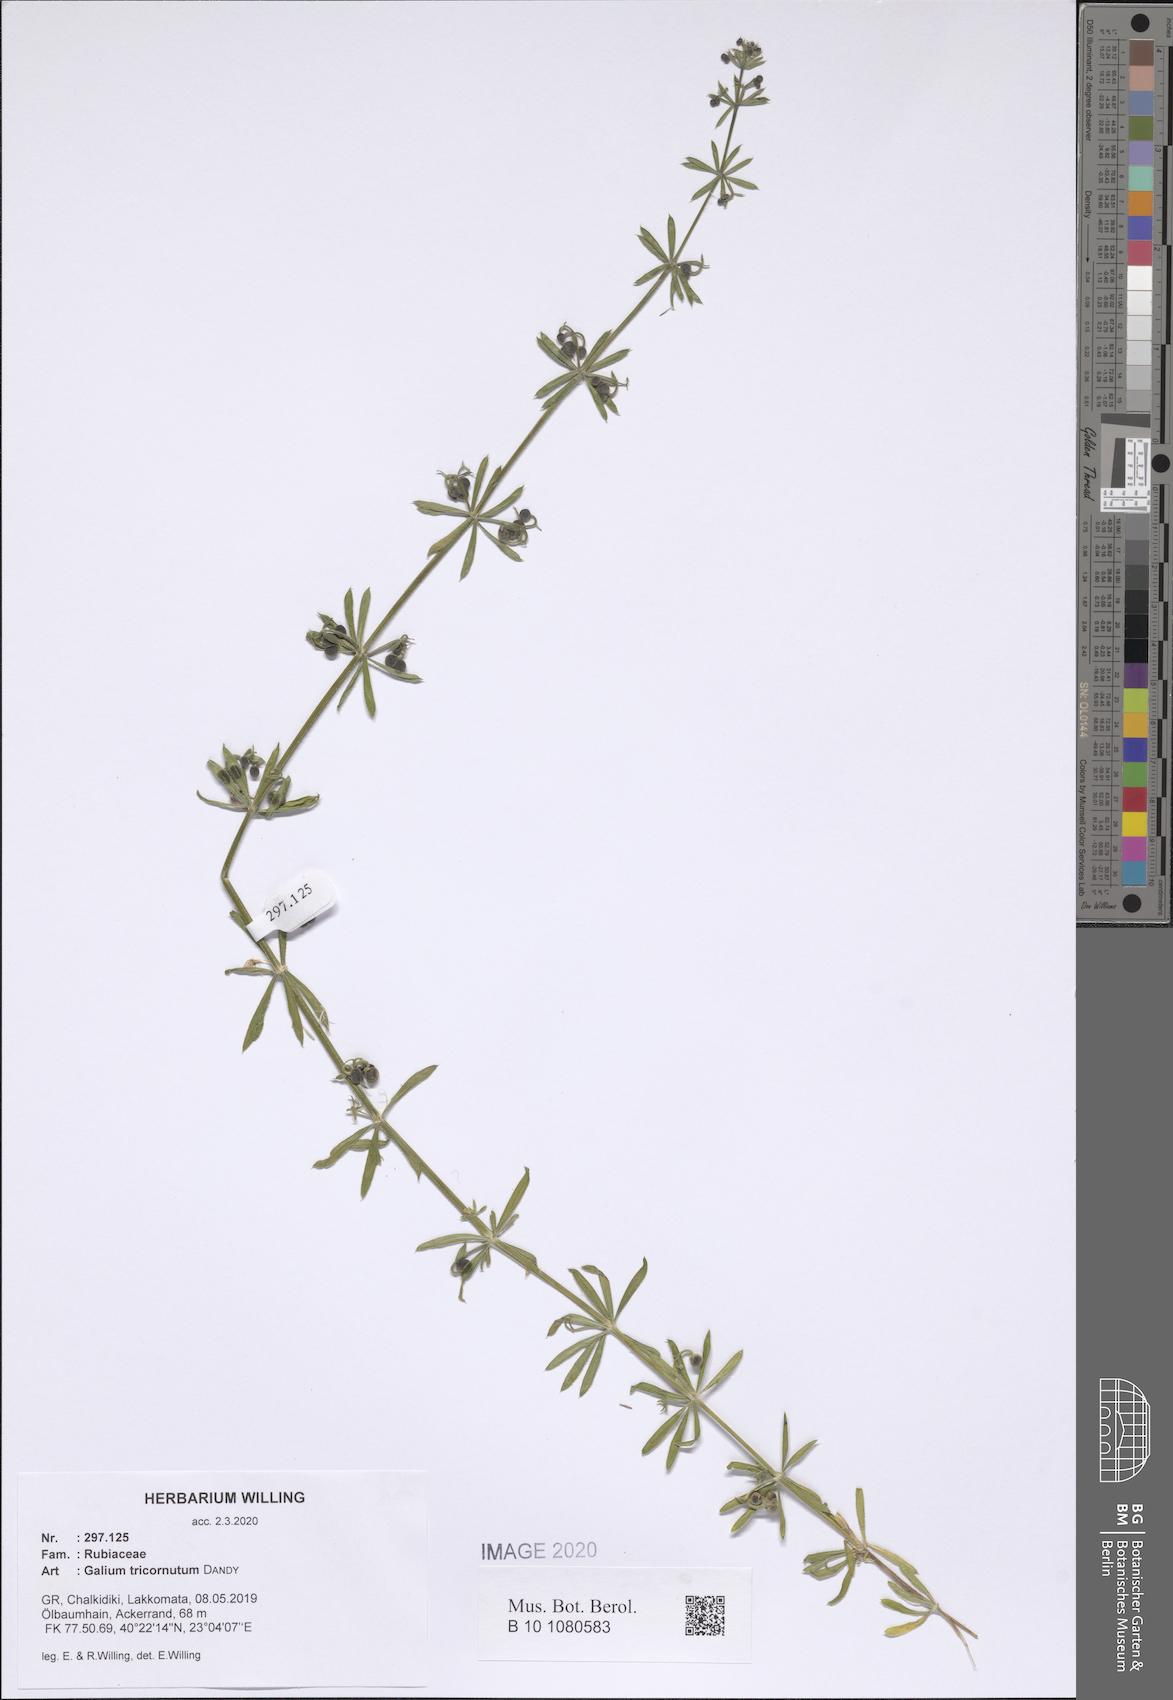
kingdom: Plantae
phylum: Tracheophyta
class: Magnoliopsida
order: Gentianales
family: Rubiaceae
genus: Galium
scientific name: Galium tricornutum
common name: Corn cleavers
